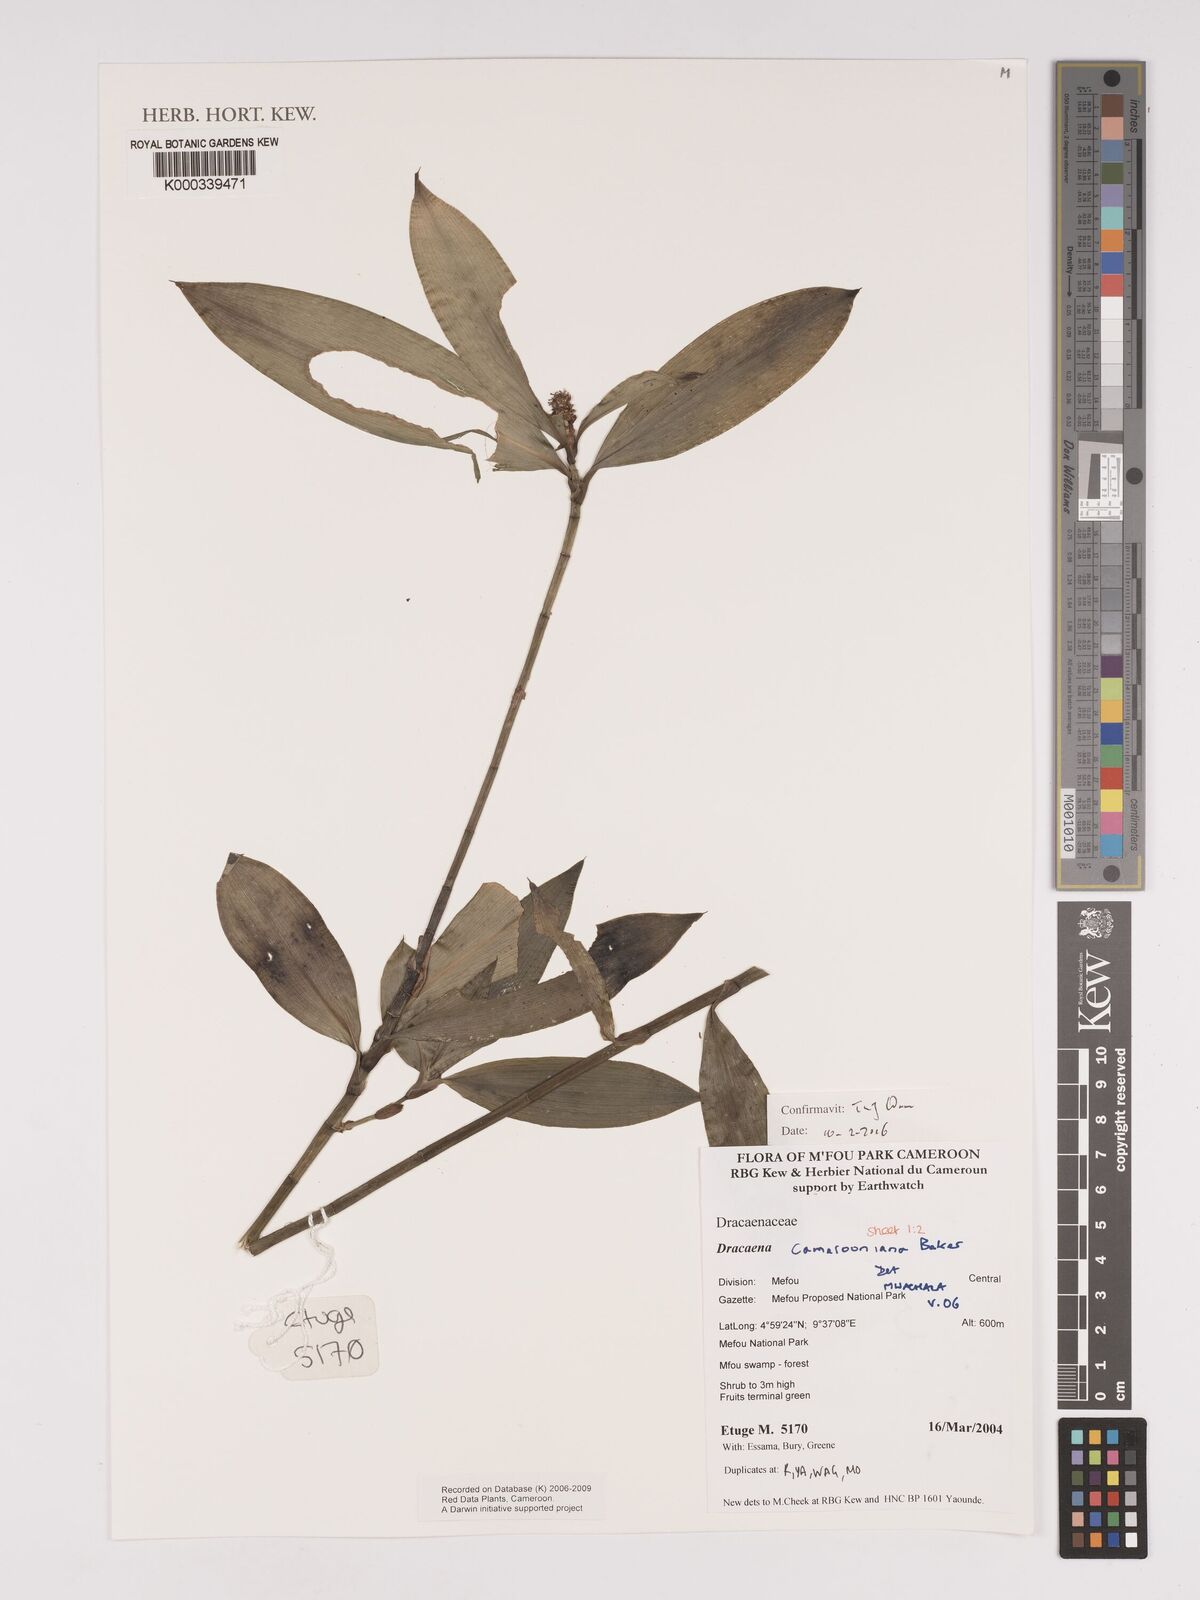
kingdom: Plantae
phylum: Tracheophyta
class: Liliopsida
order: Asparagales
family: Asparagaceae
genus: Dracaena
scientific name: Dracaena camerooniana
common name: Dragon tree
